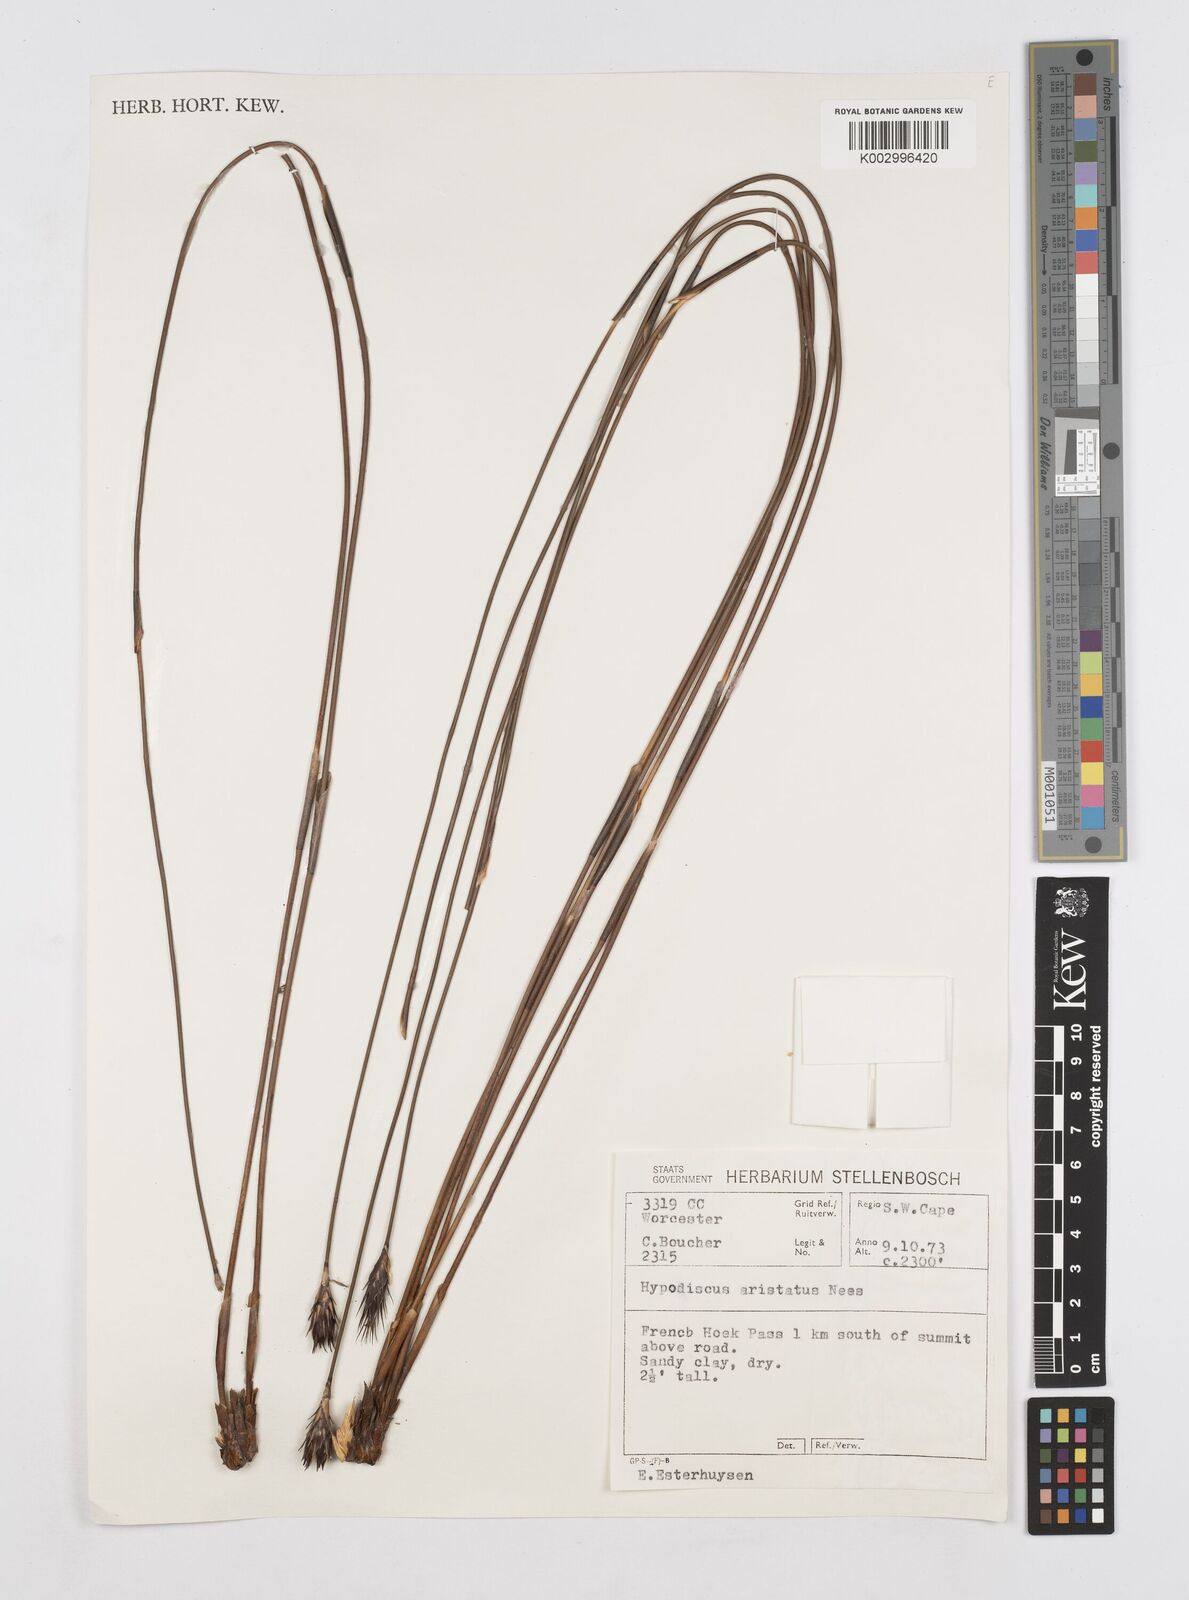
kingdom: Plantae
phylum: Tracheophyta
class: Liliopsida
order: Poales
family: Restionaceae
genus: Hypodiscus
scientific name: Hypodiscus aristatus
